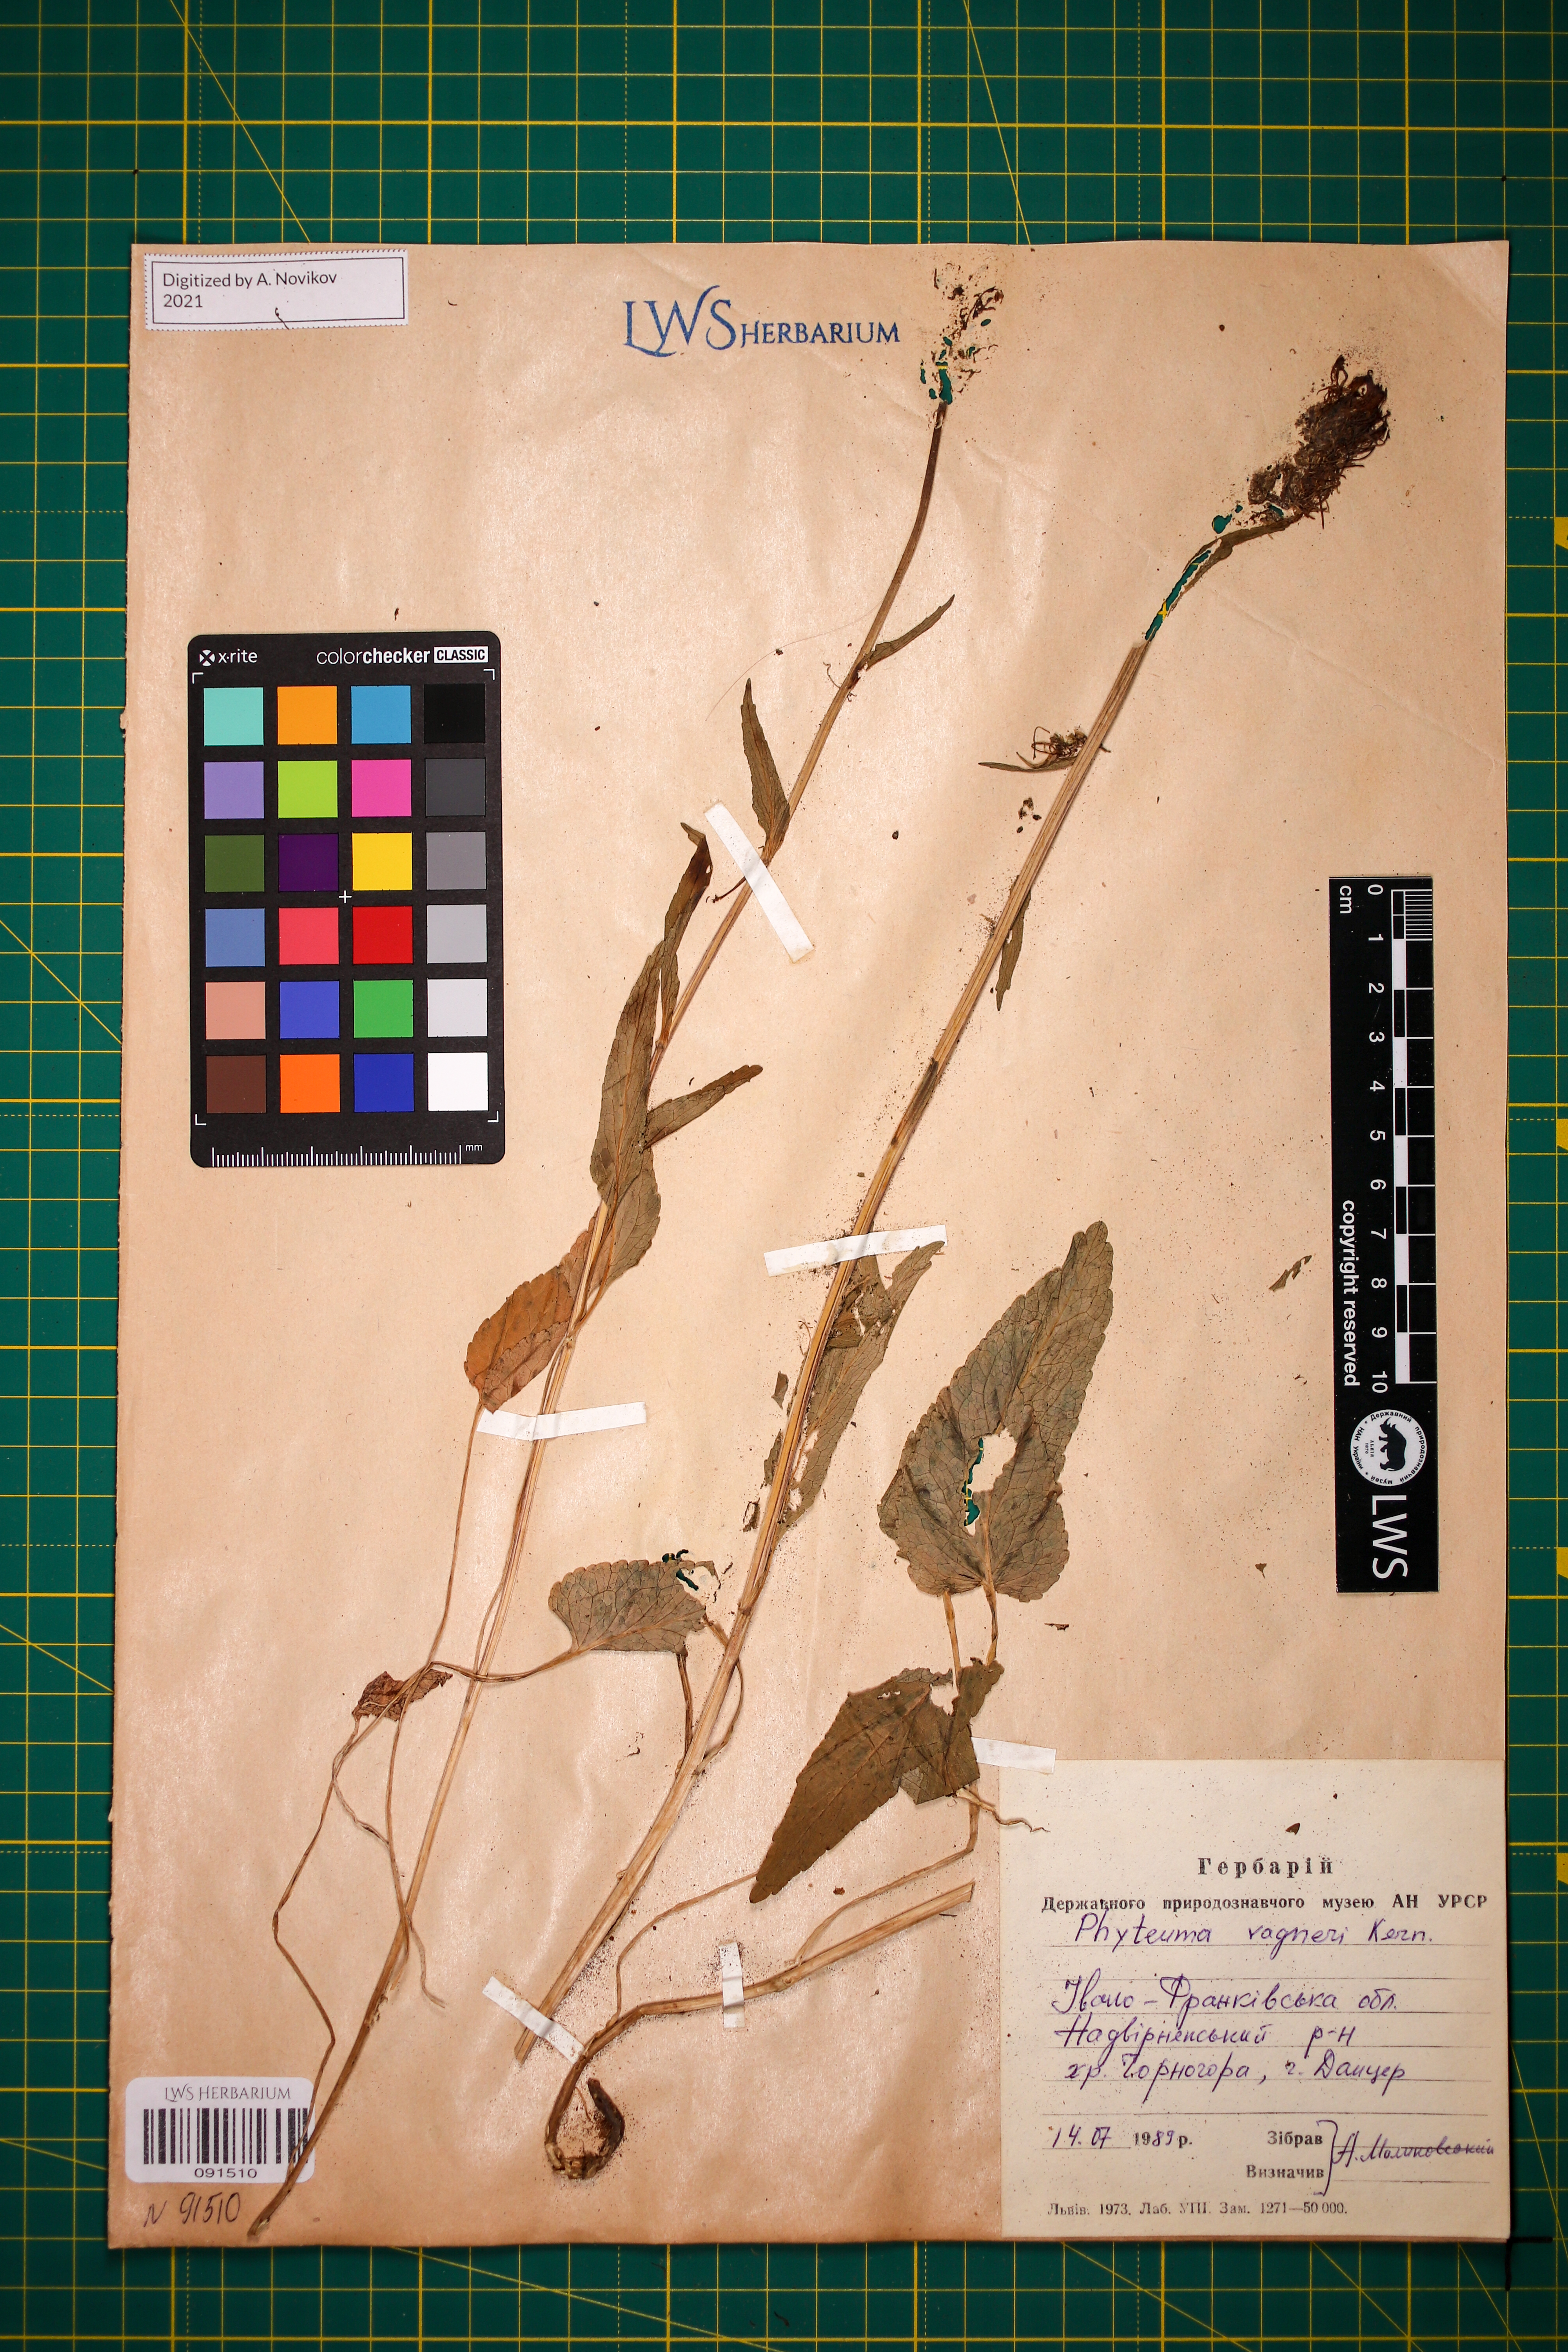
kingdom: Plantae
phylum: Tracheophyta
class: Magnoliopsida
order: Asterales
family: Campanulaceae
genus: Phyteuma
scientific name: Phyteuma vagneri
